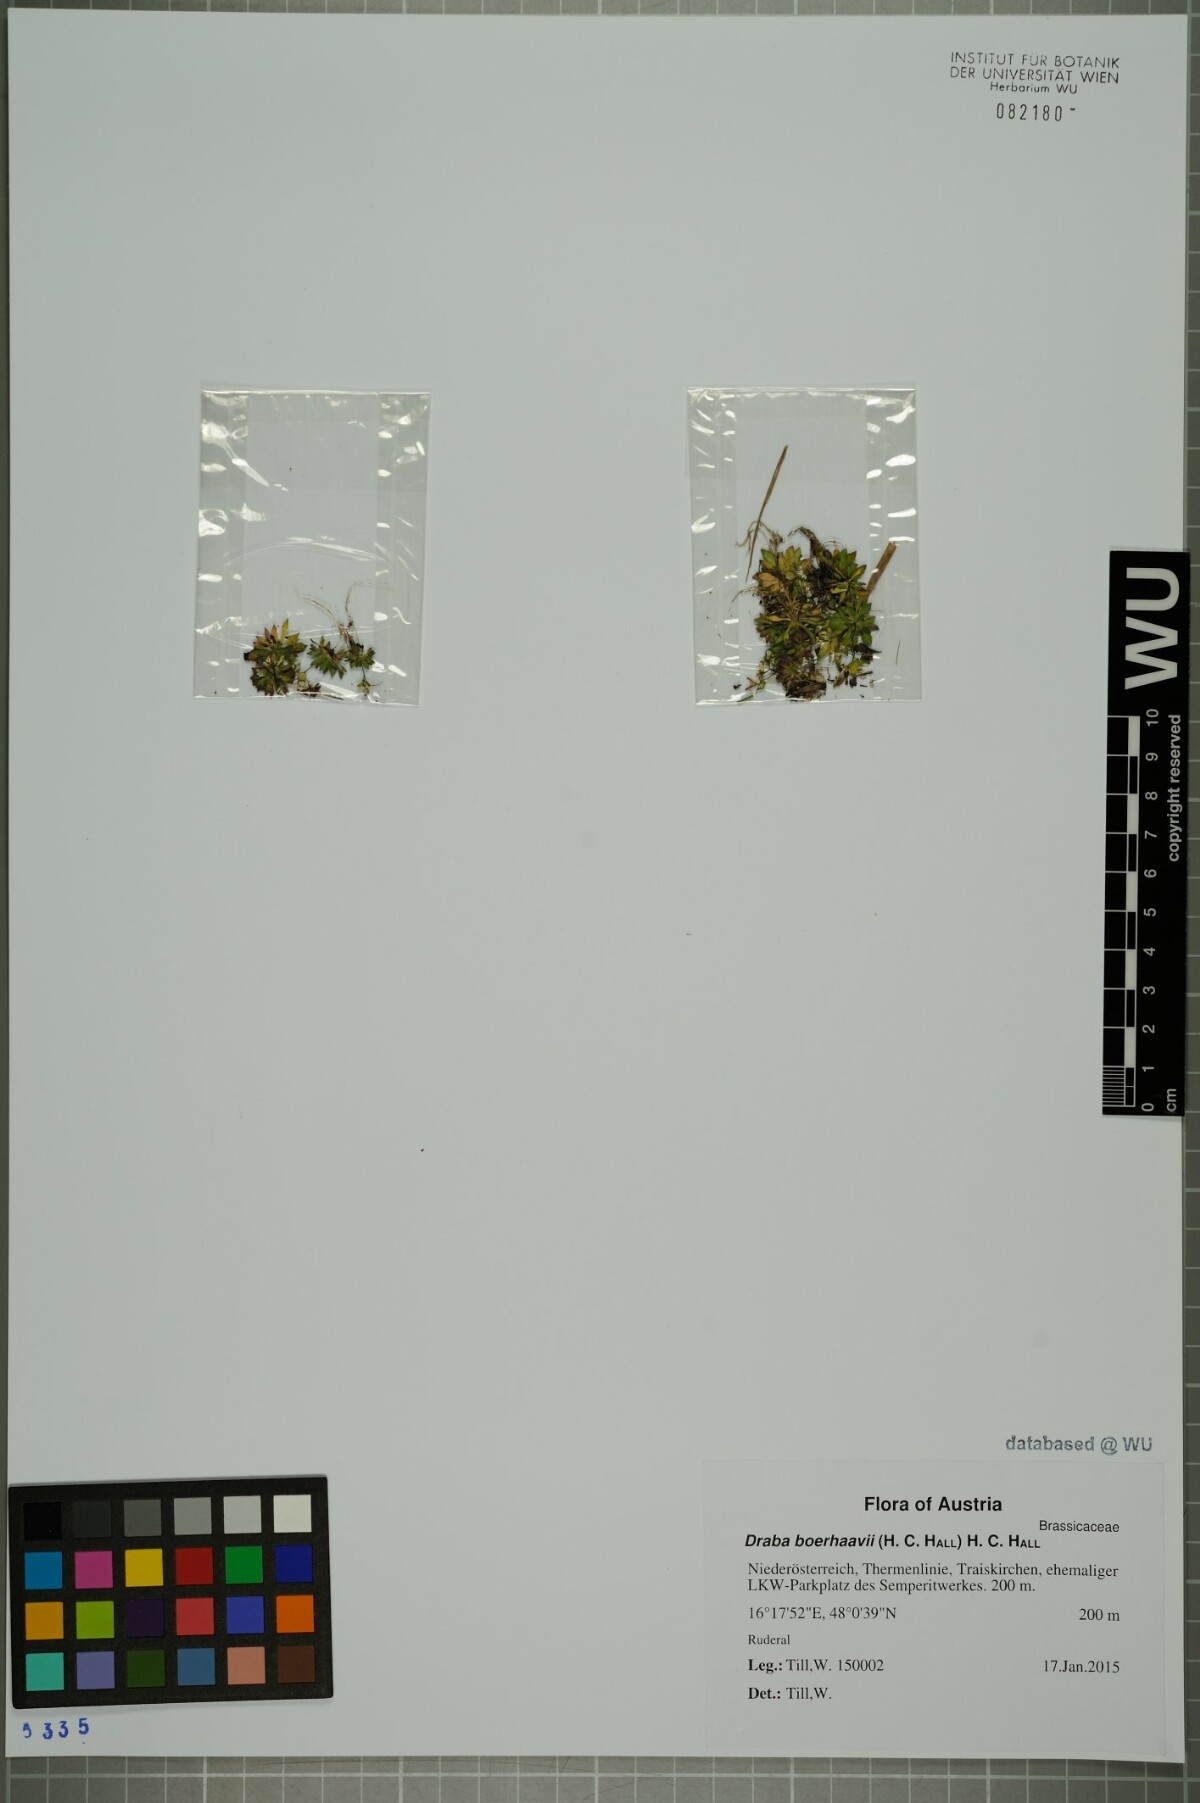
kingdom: Plantae
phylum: Tracheophyta
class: Magnoliopsida
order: Brassicales
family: Brassicaceae
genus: Draba
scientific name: Draba verna
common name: Spring draba
